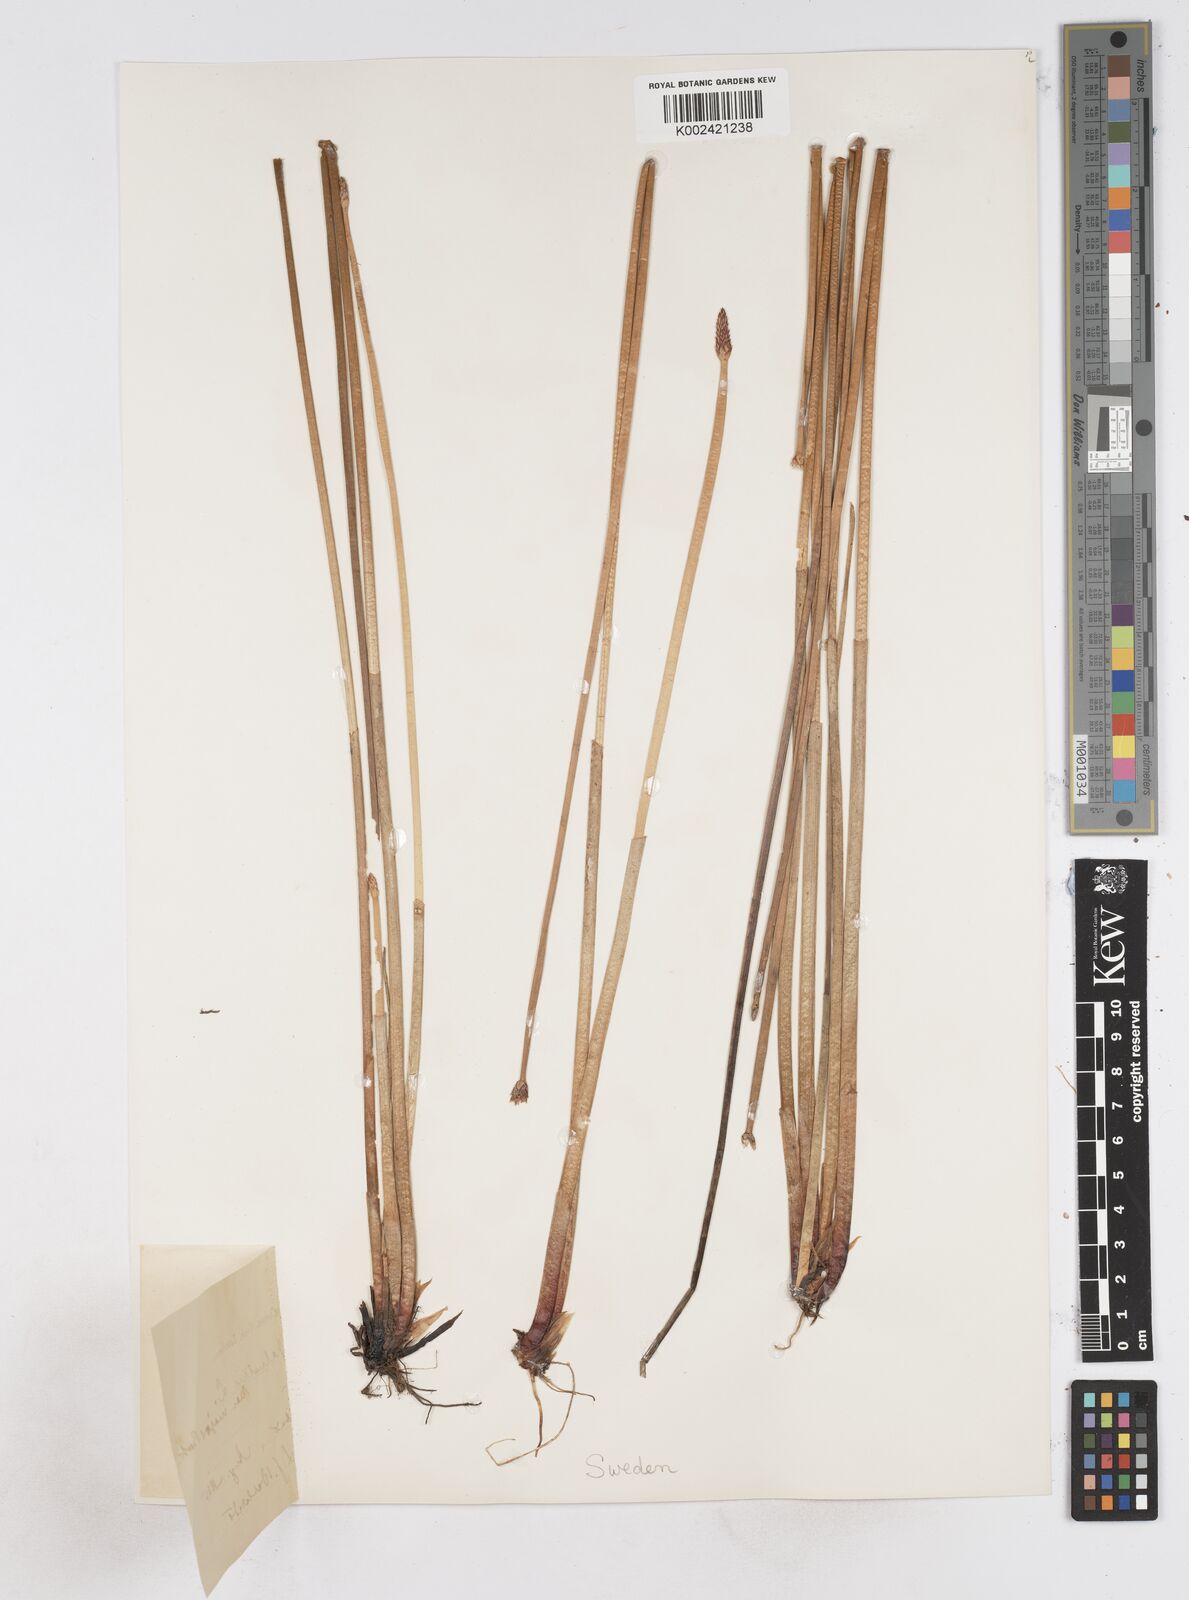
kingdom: Plantae
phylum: Tracheophyta
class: Liliopsida
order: Poales
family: Cyperaceae
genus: Eleocharis
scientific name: Eleocharis palustris
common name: Common spike-rush
